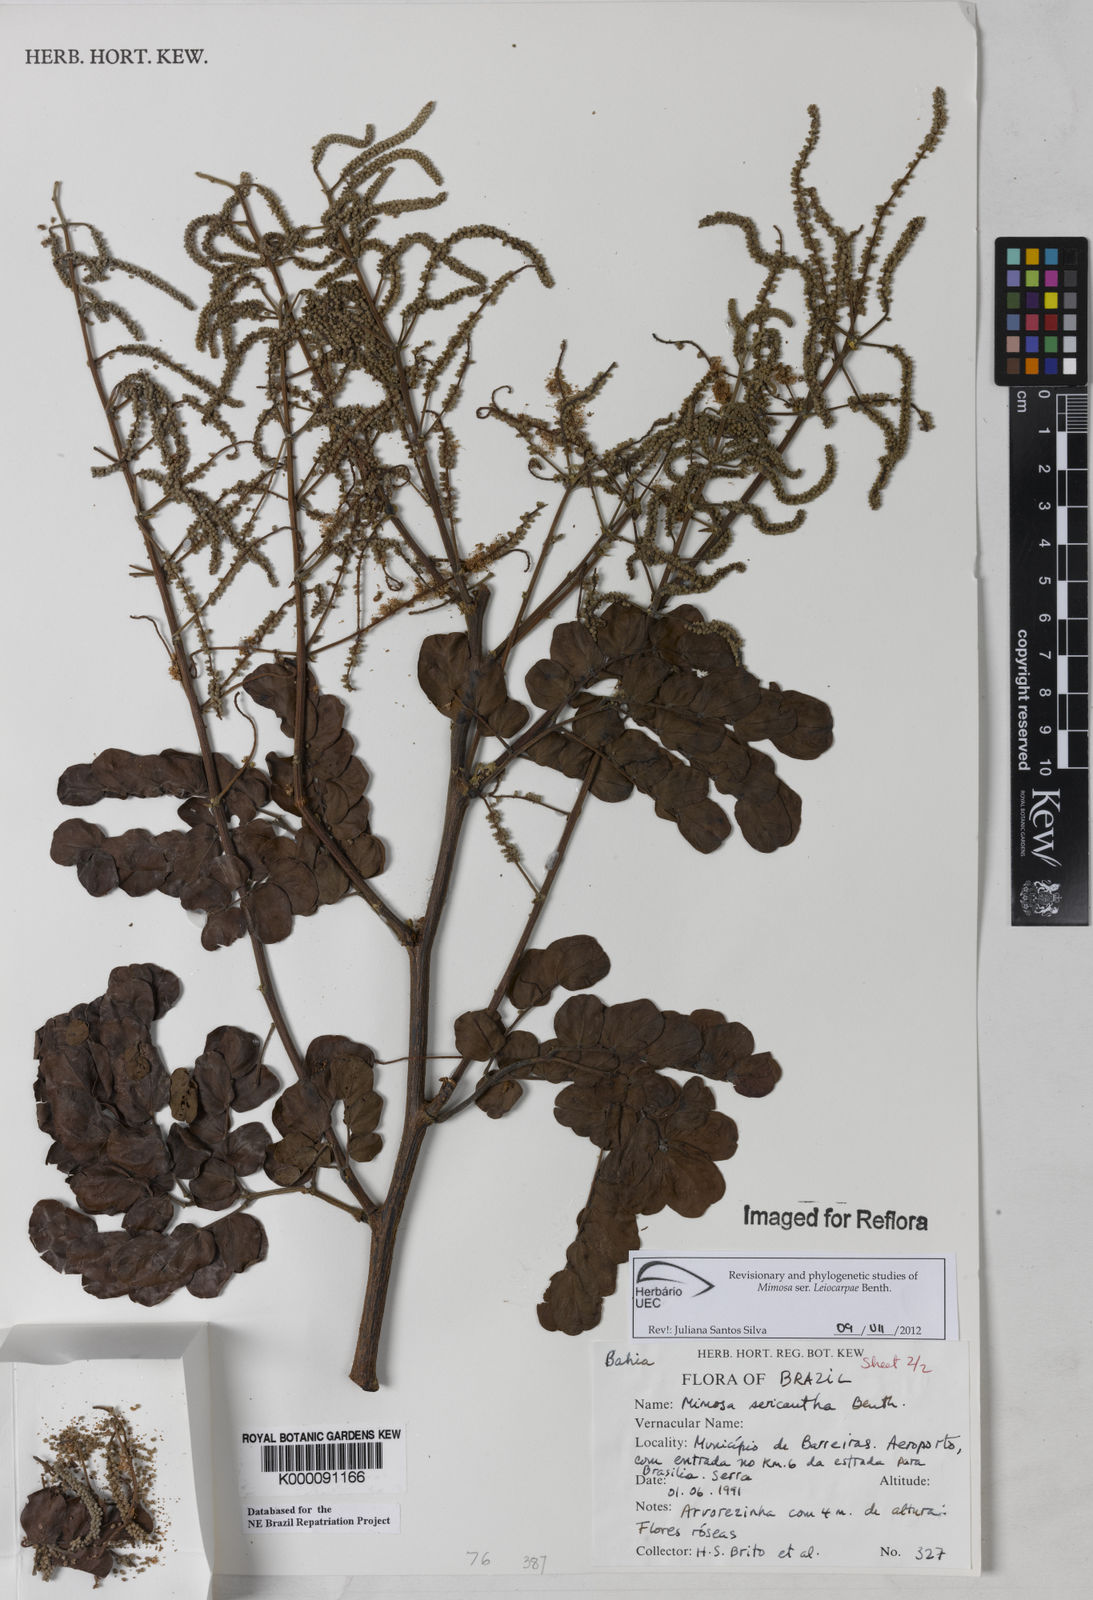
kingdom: Plantae
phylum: Tracheophyta
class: Magnoliopsida
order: Fabales
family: Fabaceae
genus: Mimosa
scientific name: Mimosa sericantha
